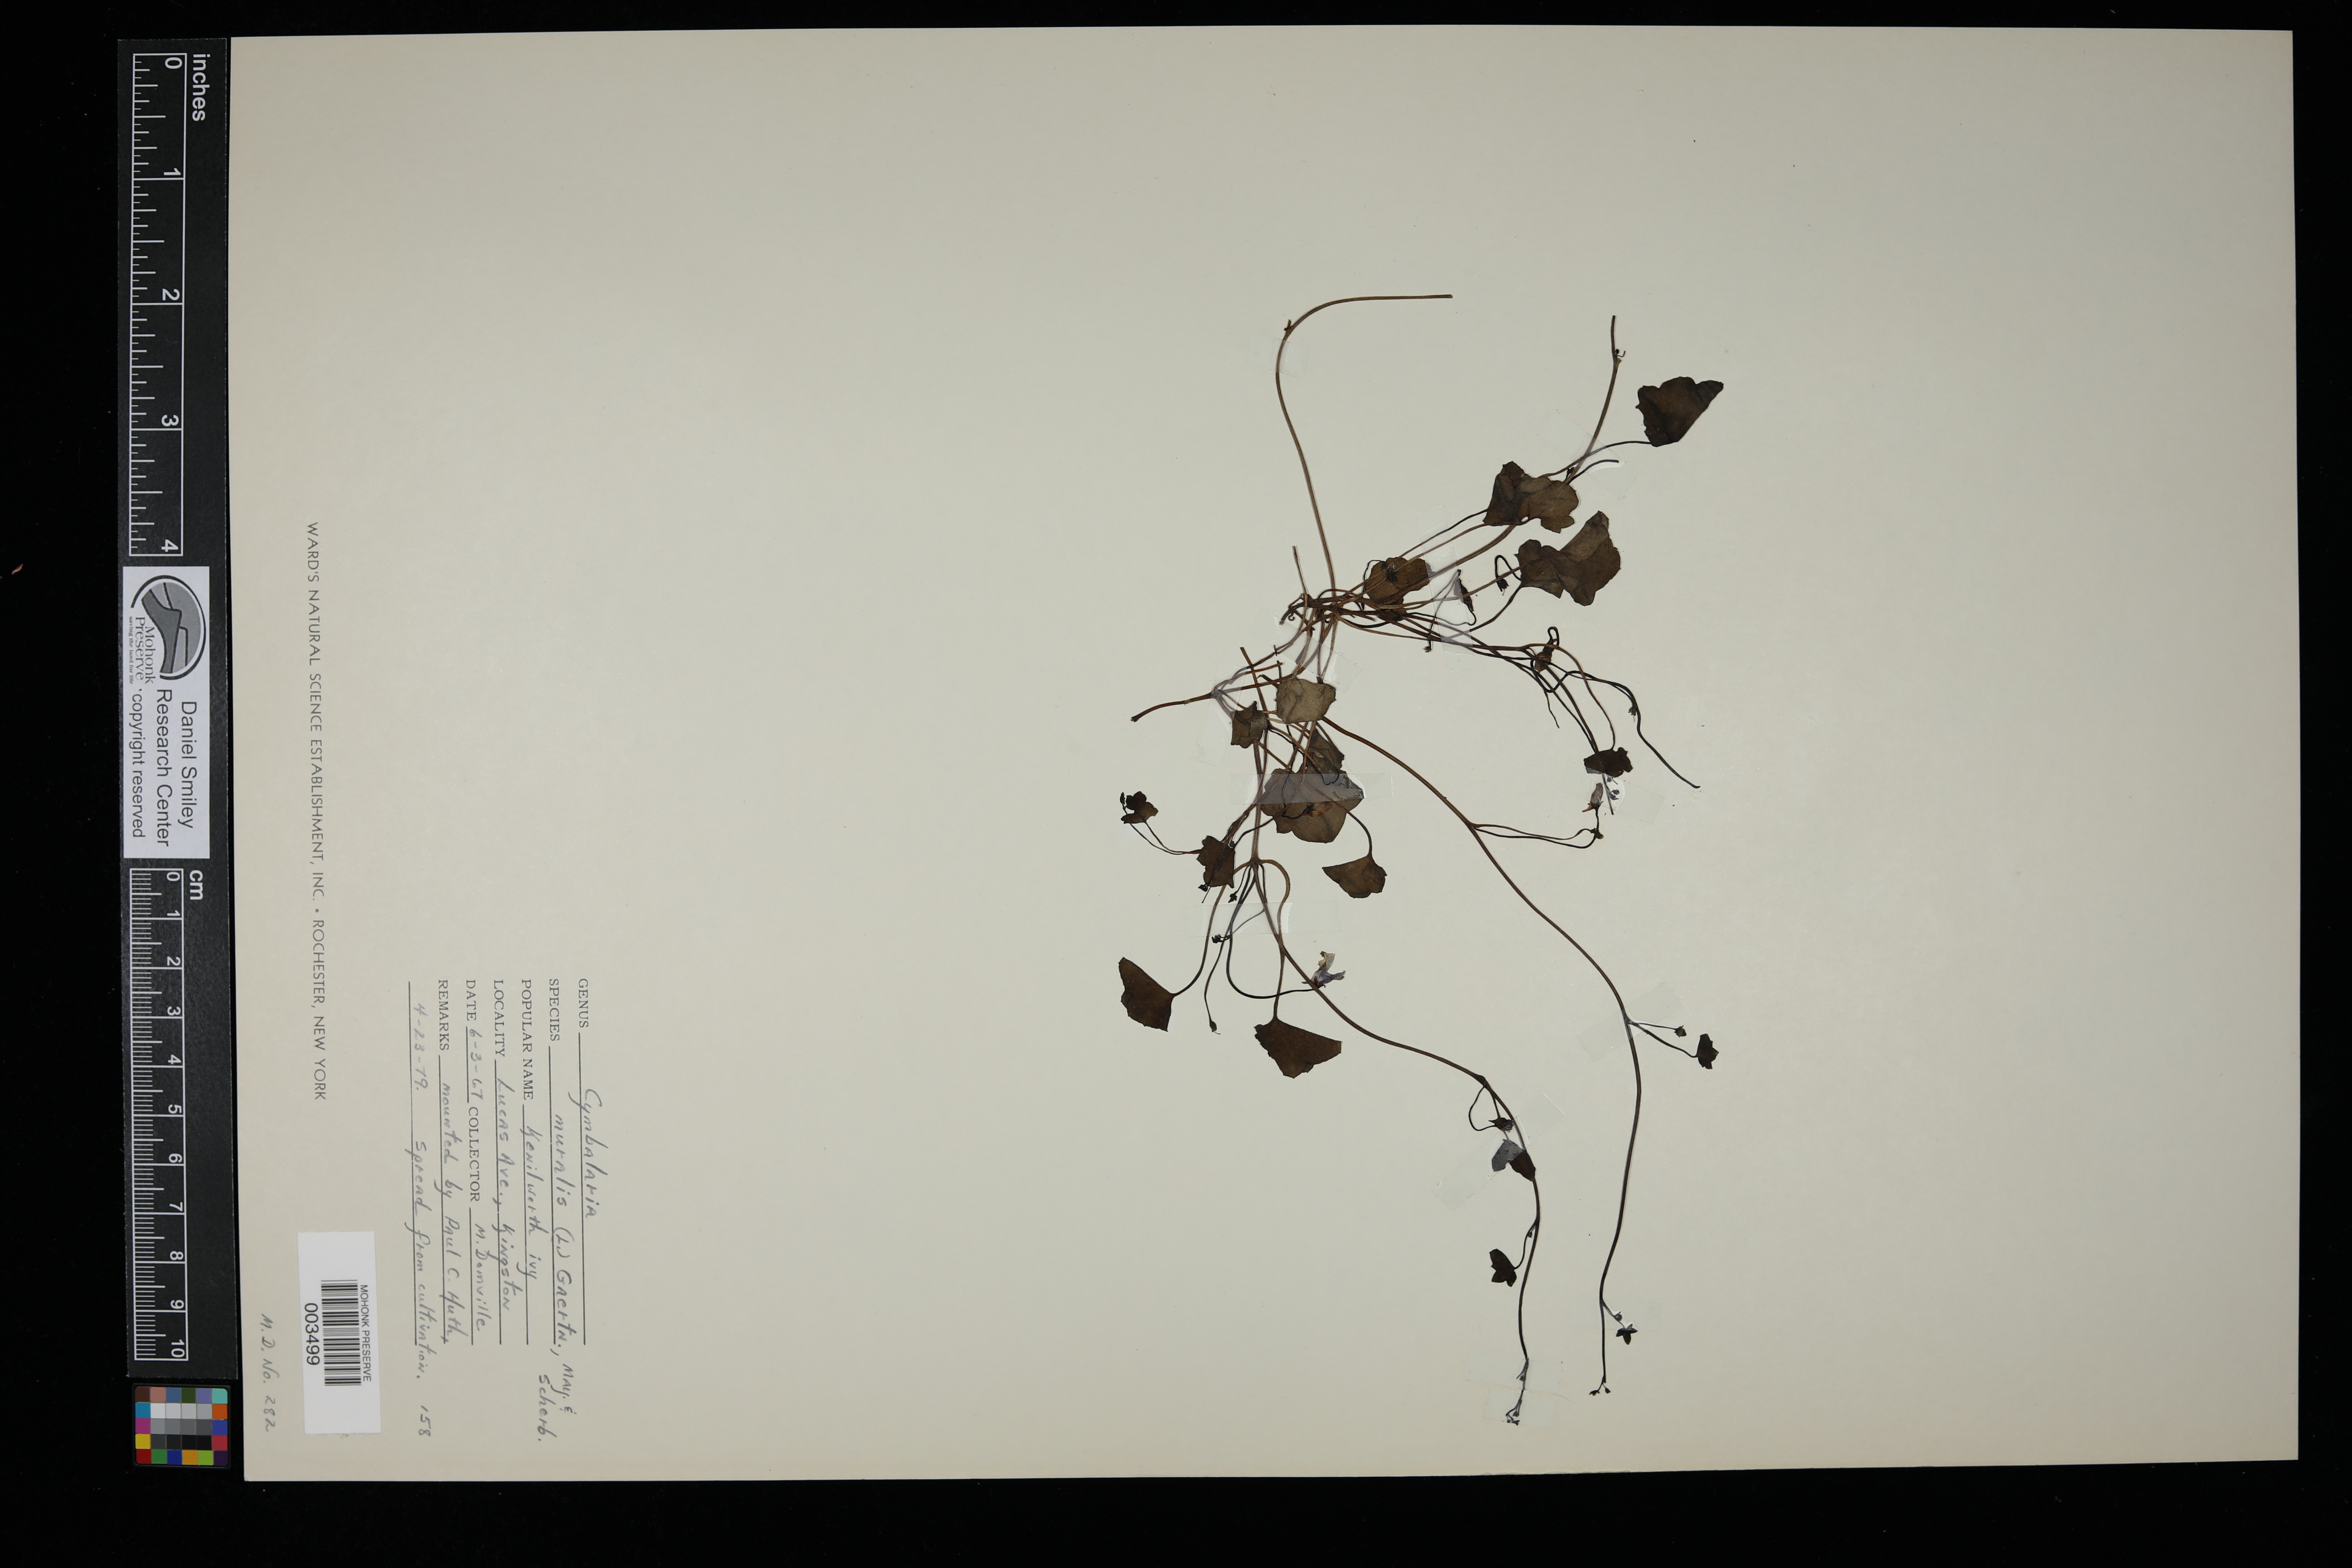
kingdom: Plantae
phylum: Tracheophyta
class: Magnoliopsida
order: Lamiales
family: Plantaginaceae
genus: Cymbalaria
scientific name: Cymbalaria muralis
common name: Ivy-leaved toadflax
